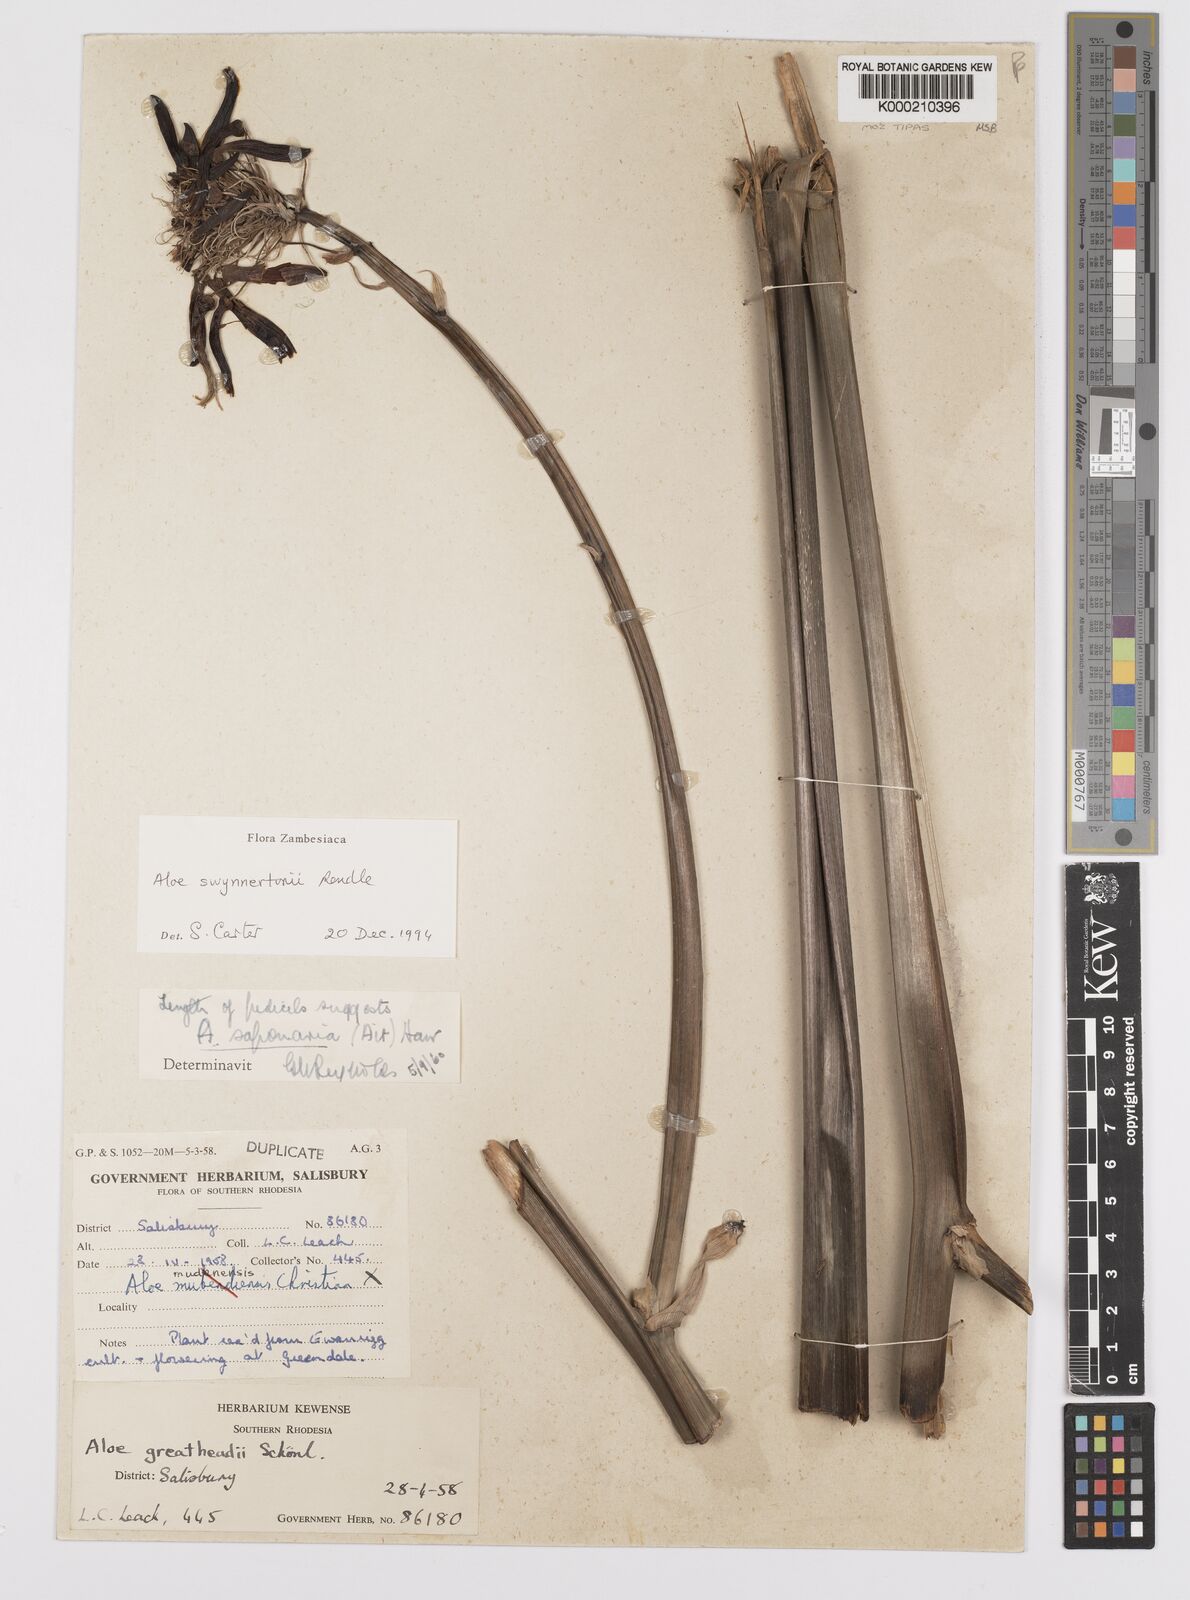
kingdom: Plantae
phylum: Tracheophyta
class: Liliopsida
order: Asparagales
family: Asphodelaceae
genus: Aloe
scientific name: Aloe swynnertonii
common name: Swynnerton's aloe
